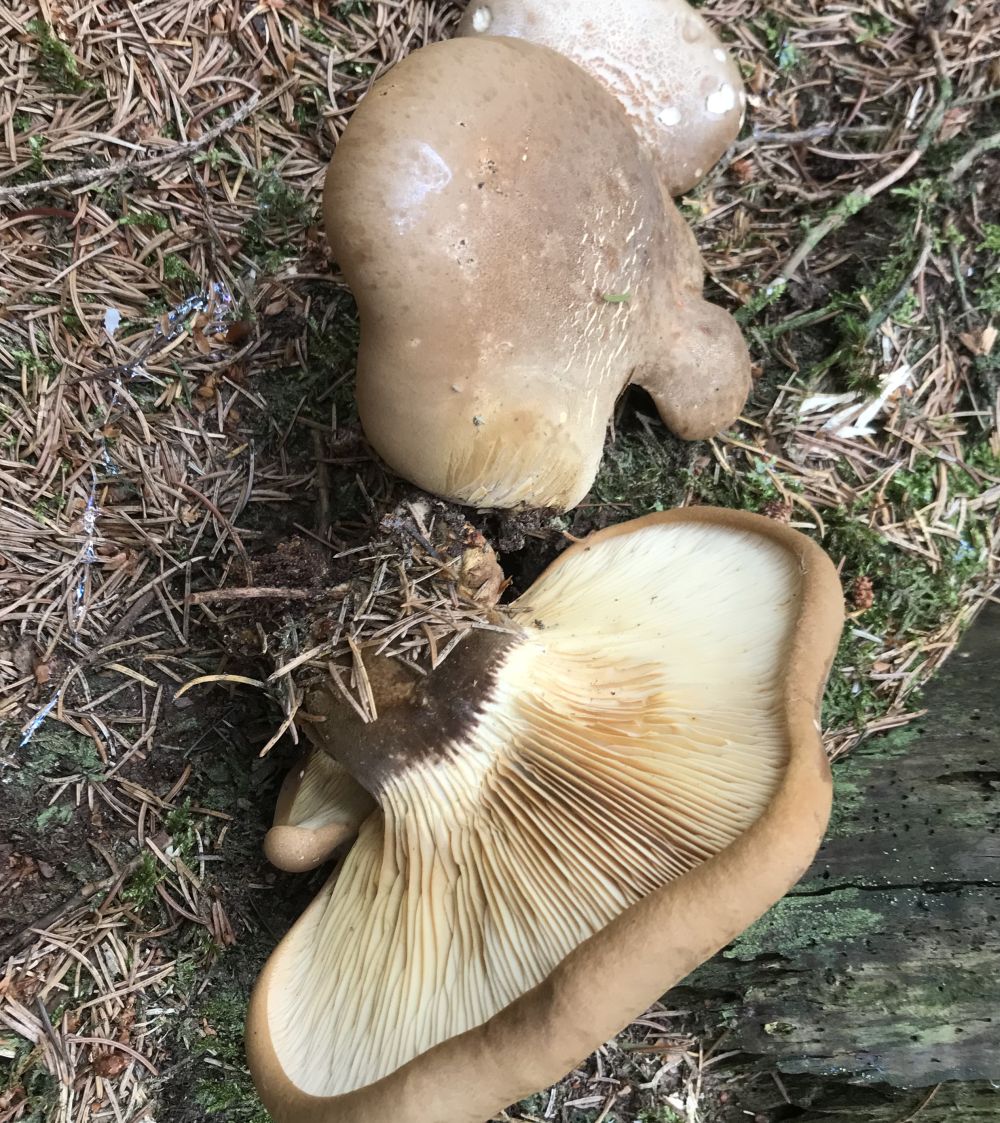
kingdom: Fungi
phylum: Basidiomycota
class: Agaricomycetes
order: Boletales
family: Tapinellaceae
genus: Tapinella
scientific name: Tapinella atrotomentosa
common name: sortfiltet viftesvamp
